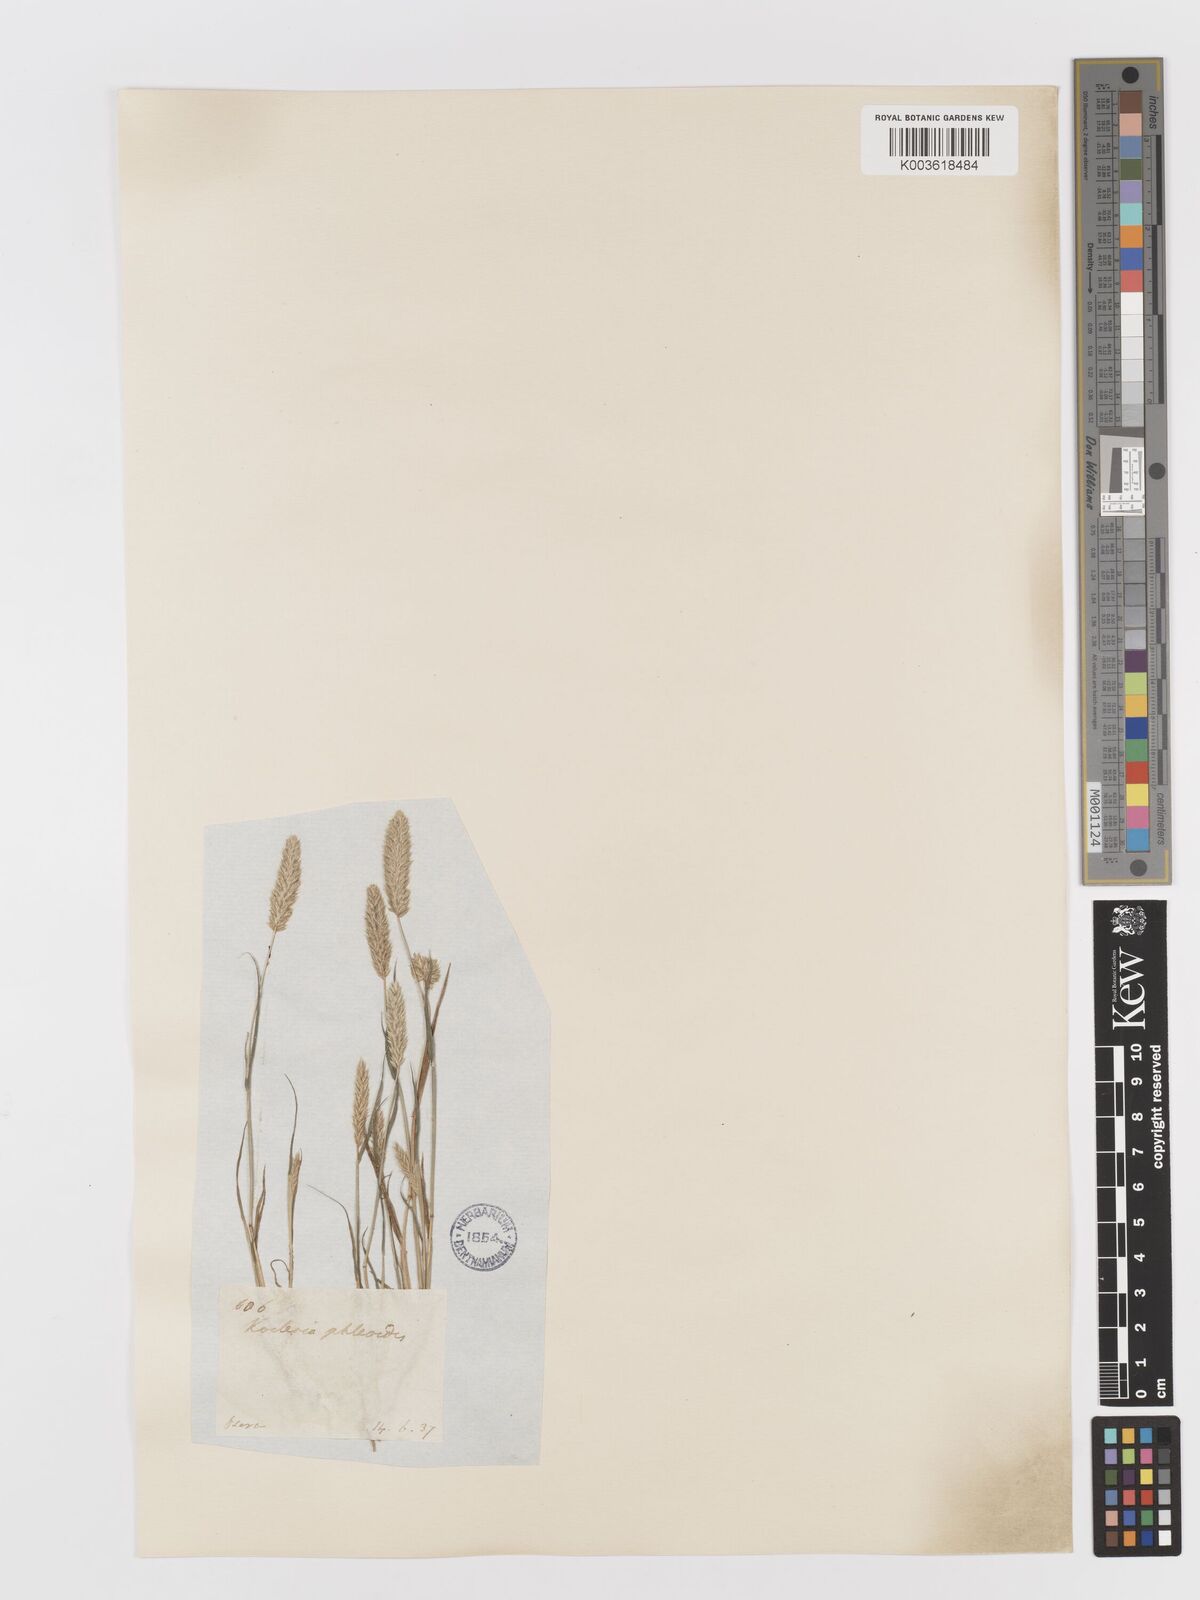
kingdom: Plantae
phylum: Tracheophyta
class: Liliopsida
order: Poales
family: Poaceae
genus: Rostraria
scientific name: Rostraria cristata
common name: Mediterranean hair-grass
